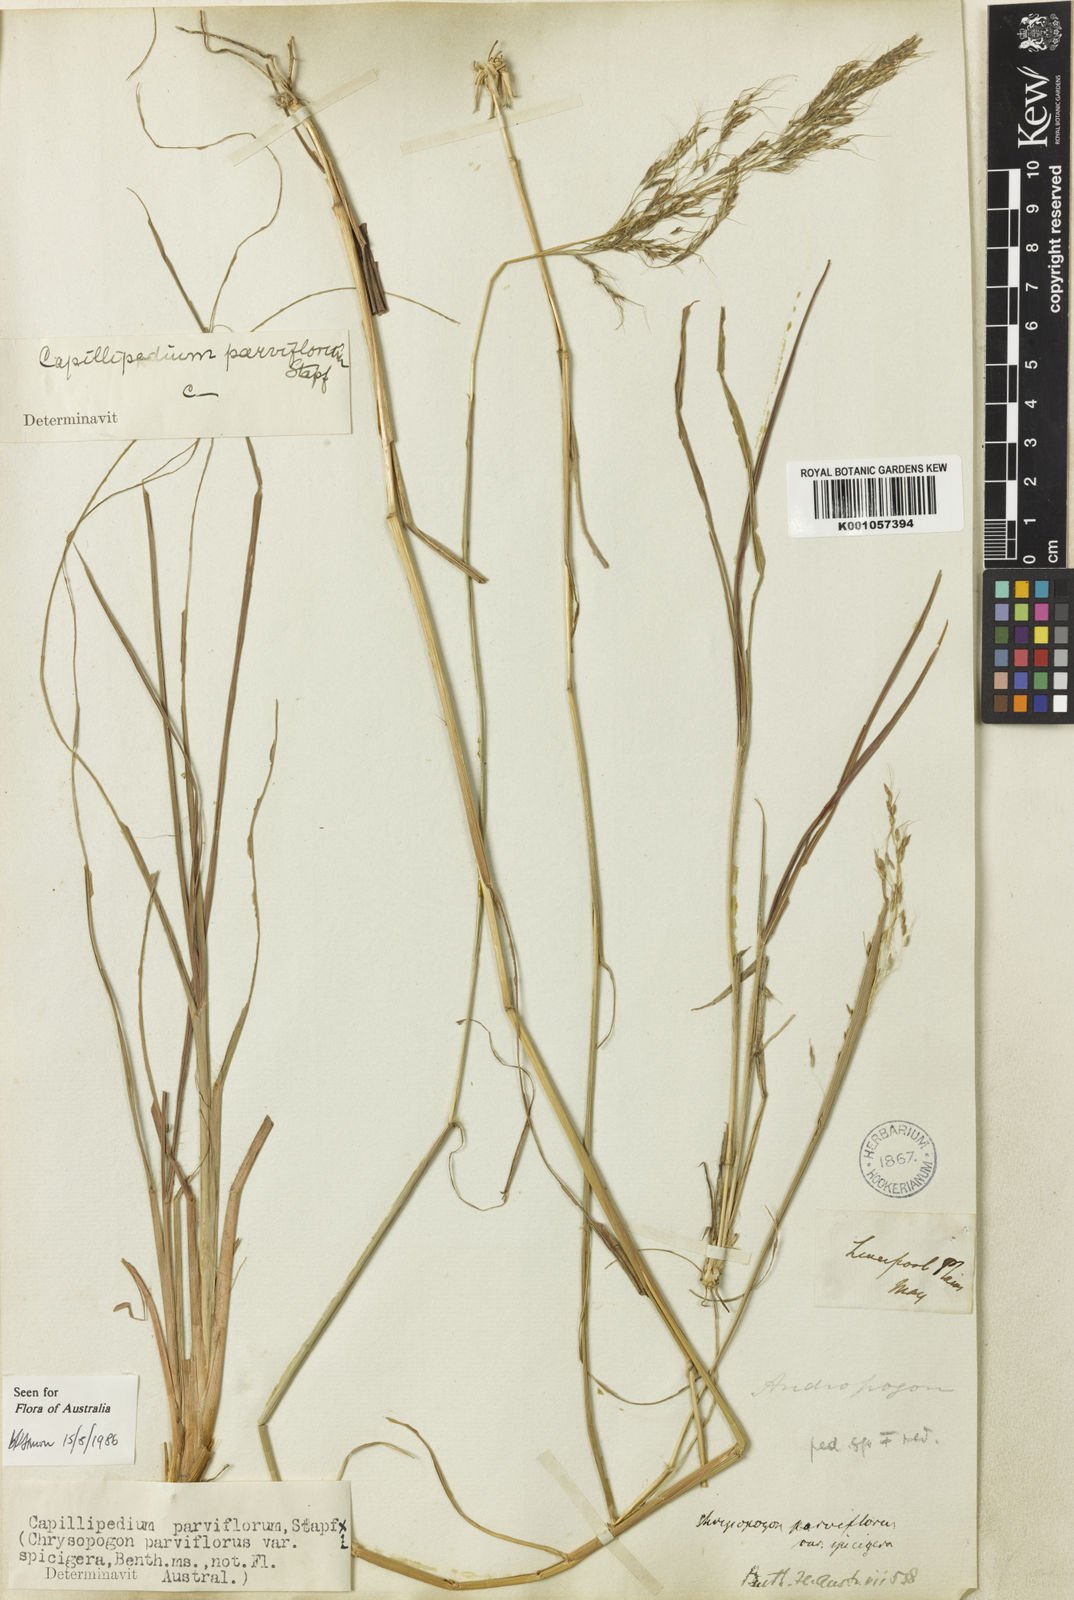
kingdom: Plantae
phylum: Tracheophyta
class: Liliopsida
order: Poales
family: Poaceae
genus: Capillipedium
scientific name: Capillipedium spicigerum
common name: Scented-top grass
